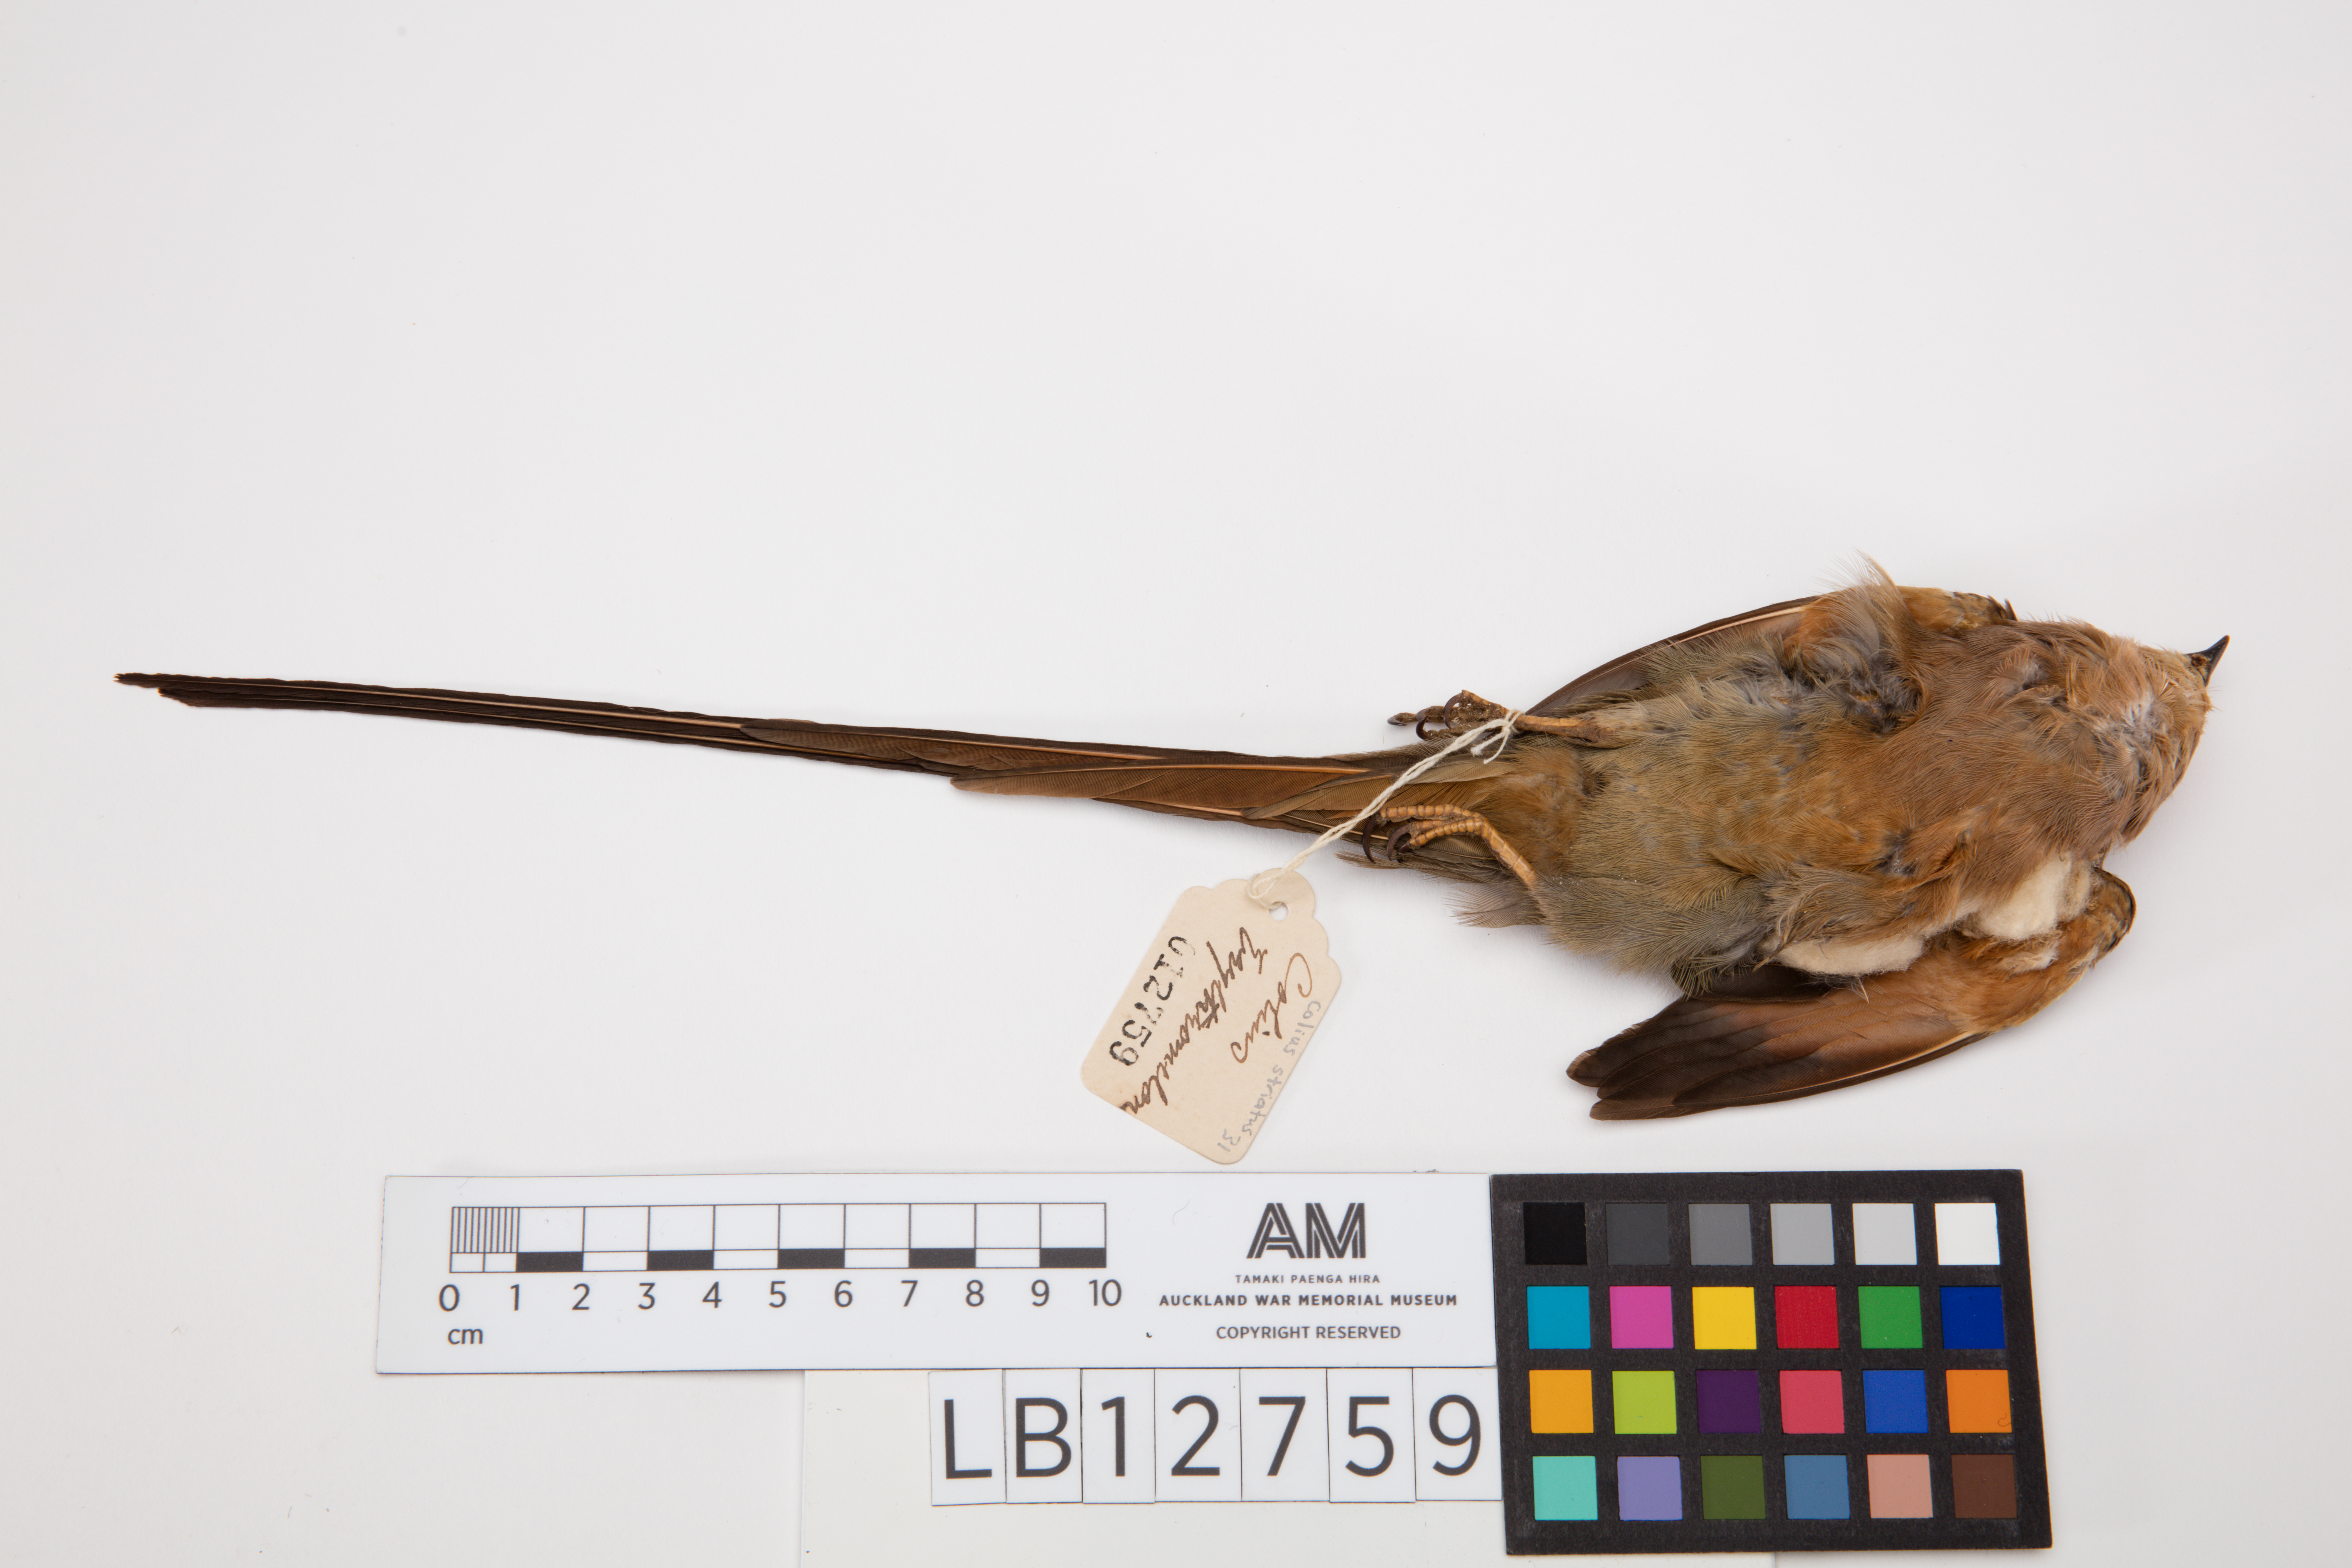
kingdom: Animalia
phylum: Chordata
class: Aves
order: Coliiformes
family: Coliidae
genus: Colius
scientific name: Colius striatus
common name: Speckled mousebird
